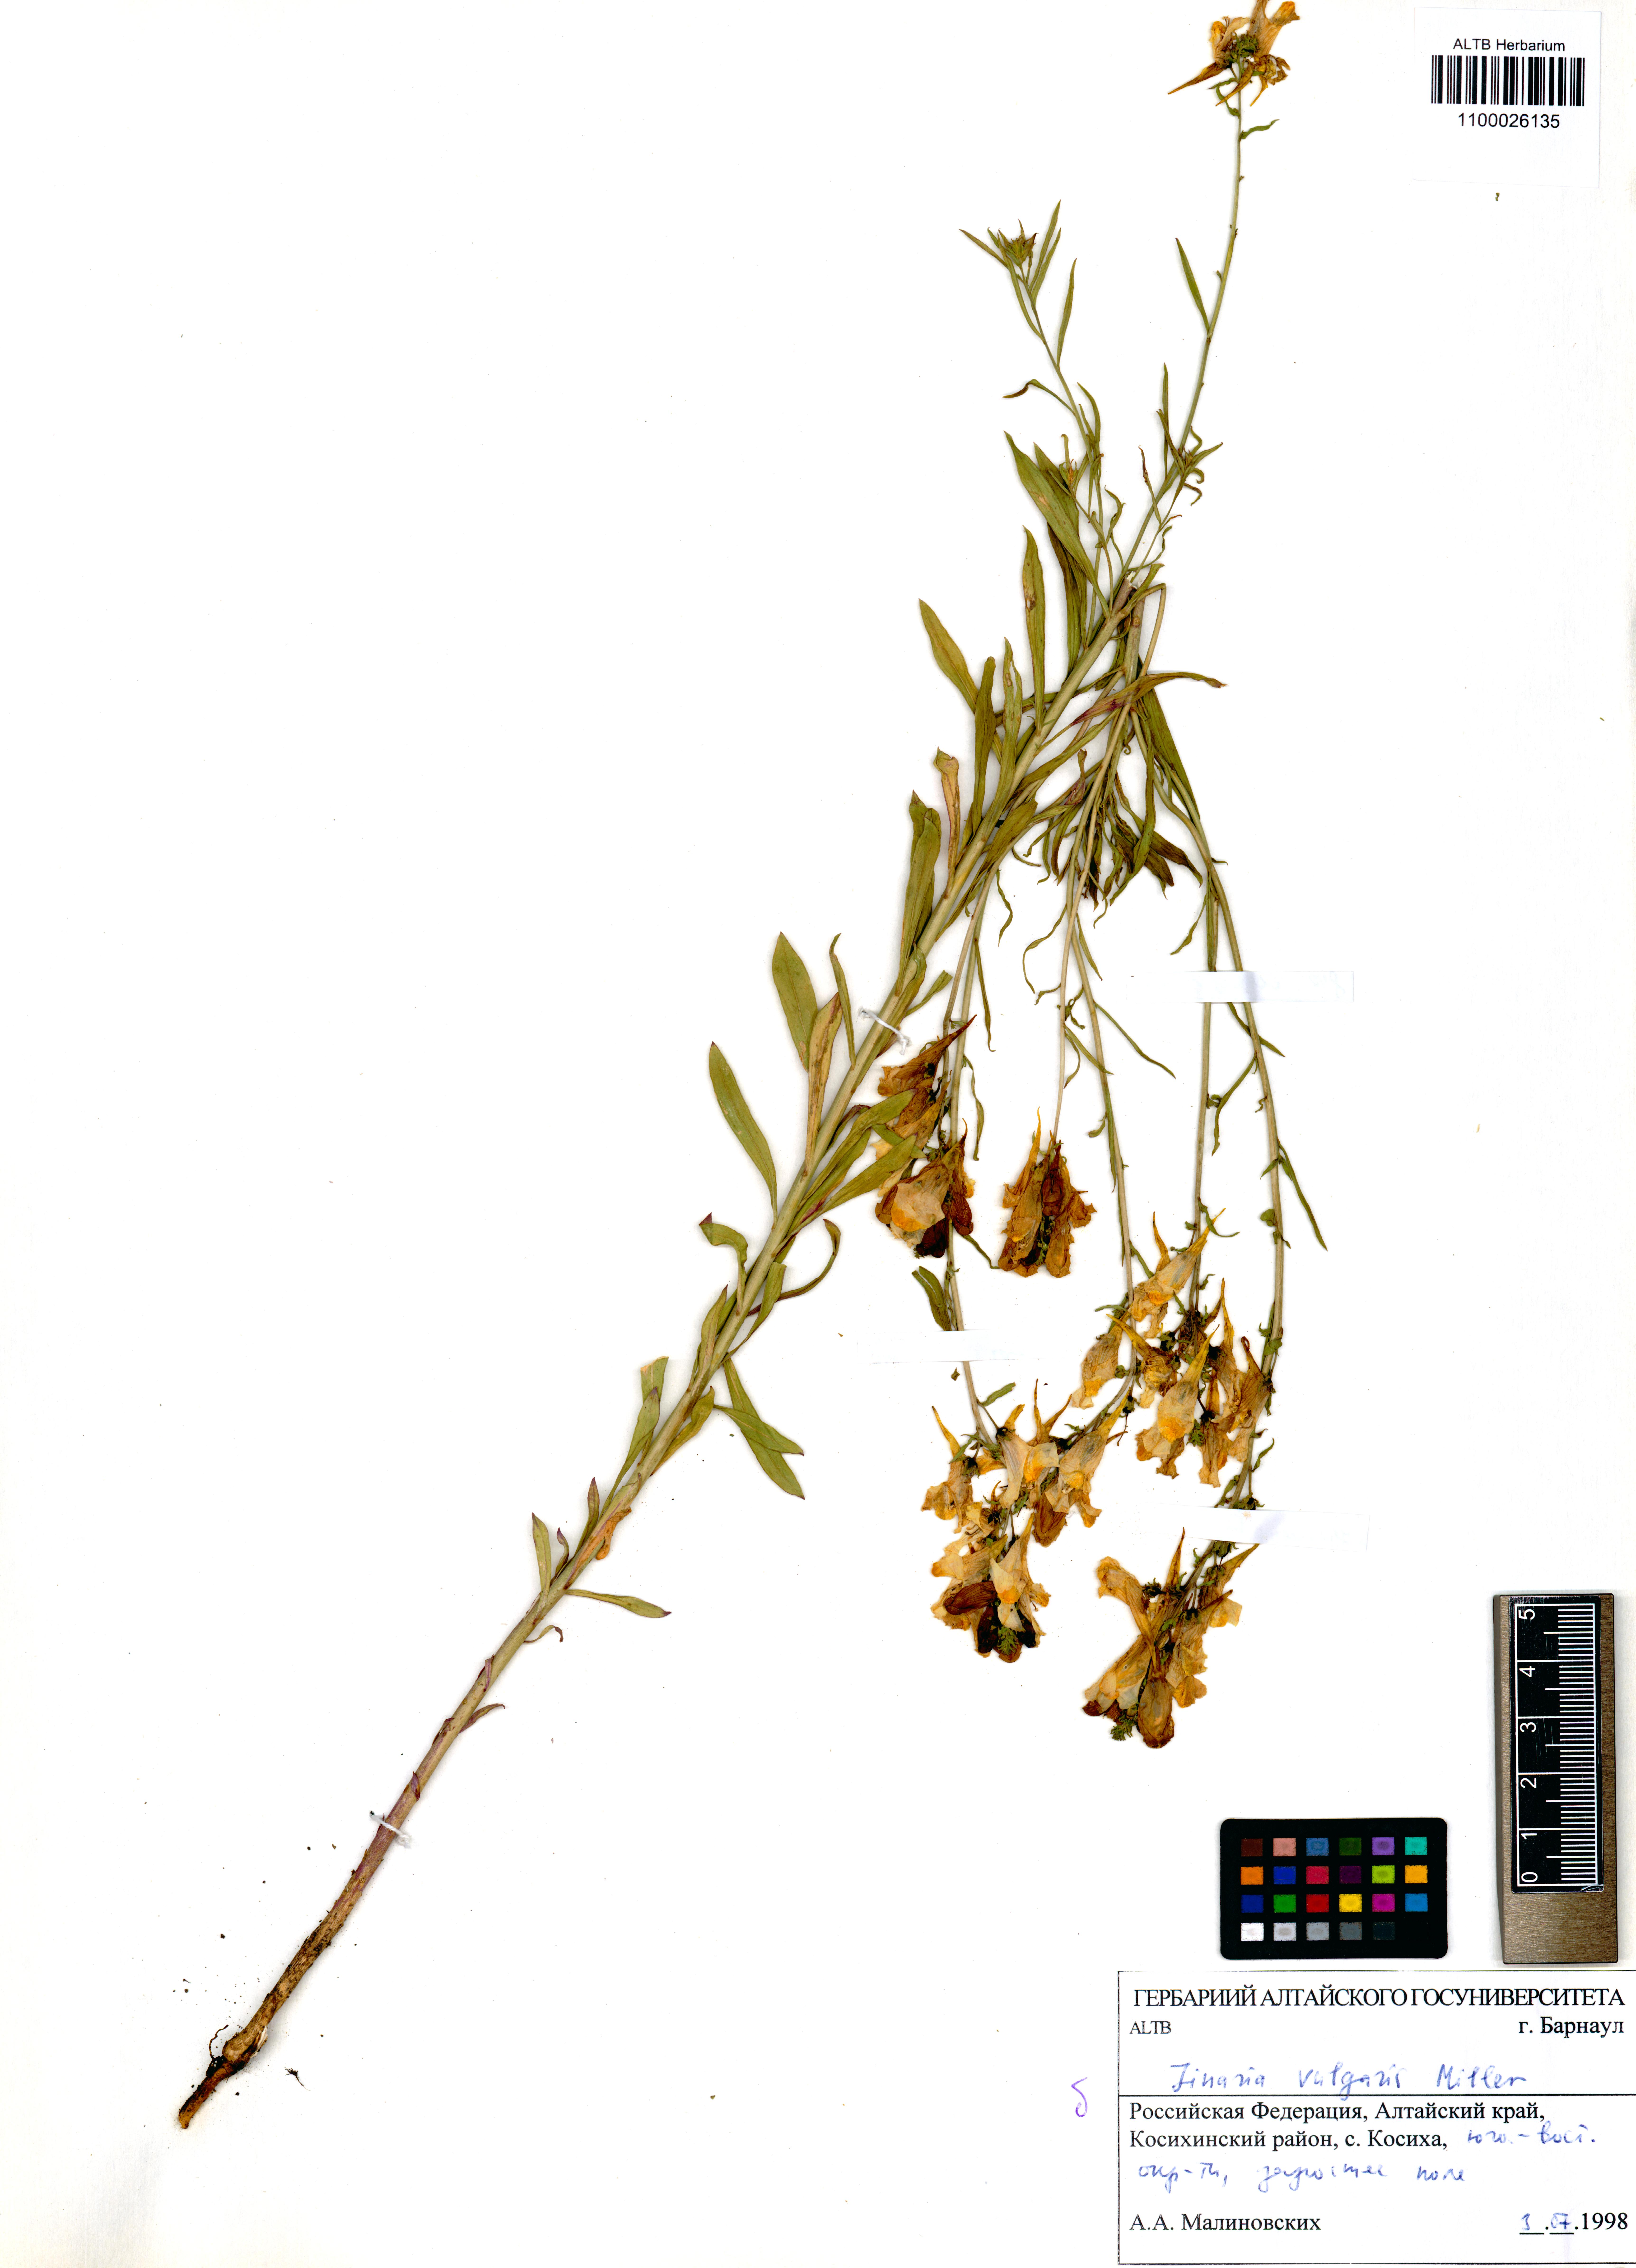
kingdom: Plantae
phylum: Tracheophyta
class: Magnoliopsida
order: Lamiales
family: Plantaginaceae
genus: Linaria
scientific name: Linaria vulgaris
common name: Butter and eggs
